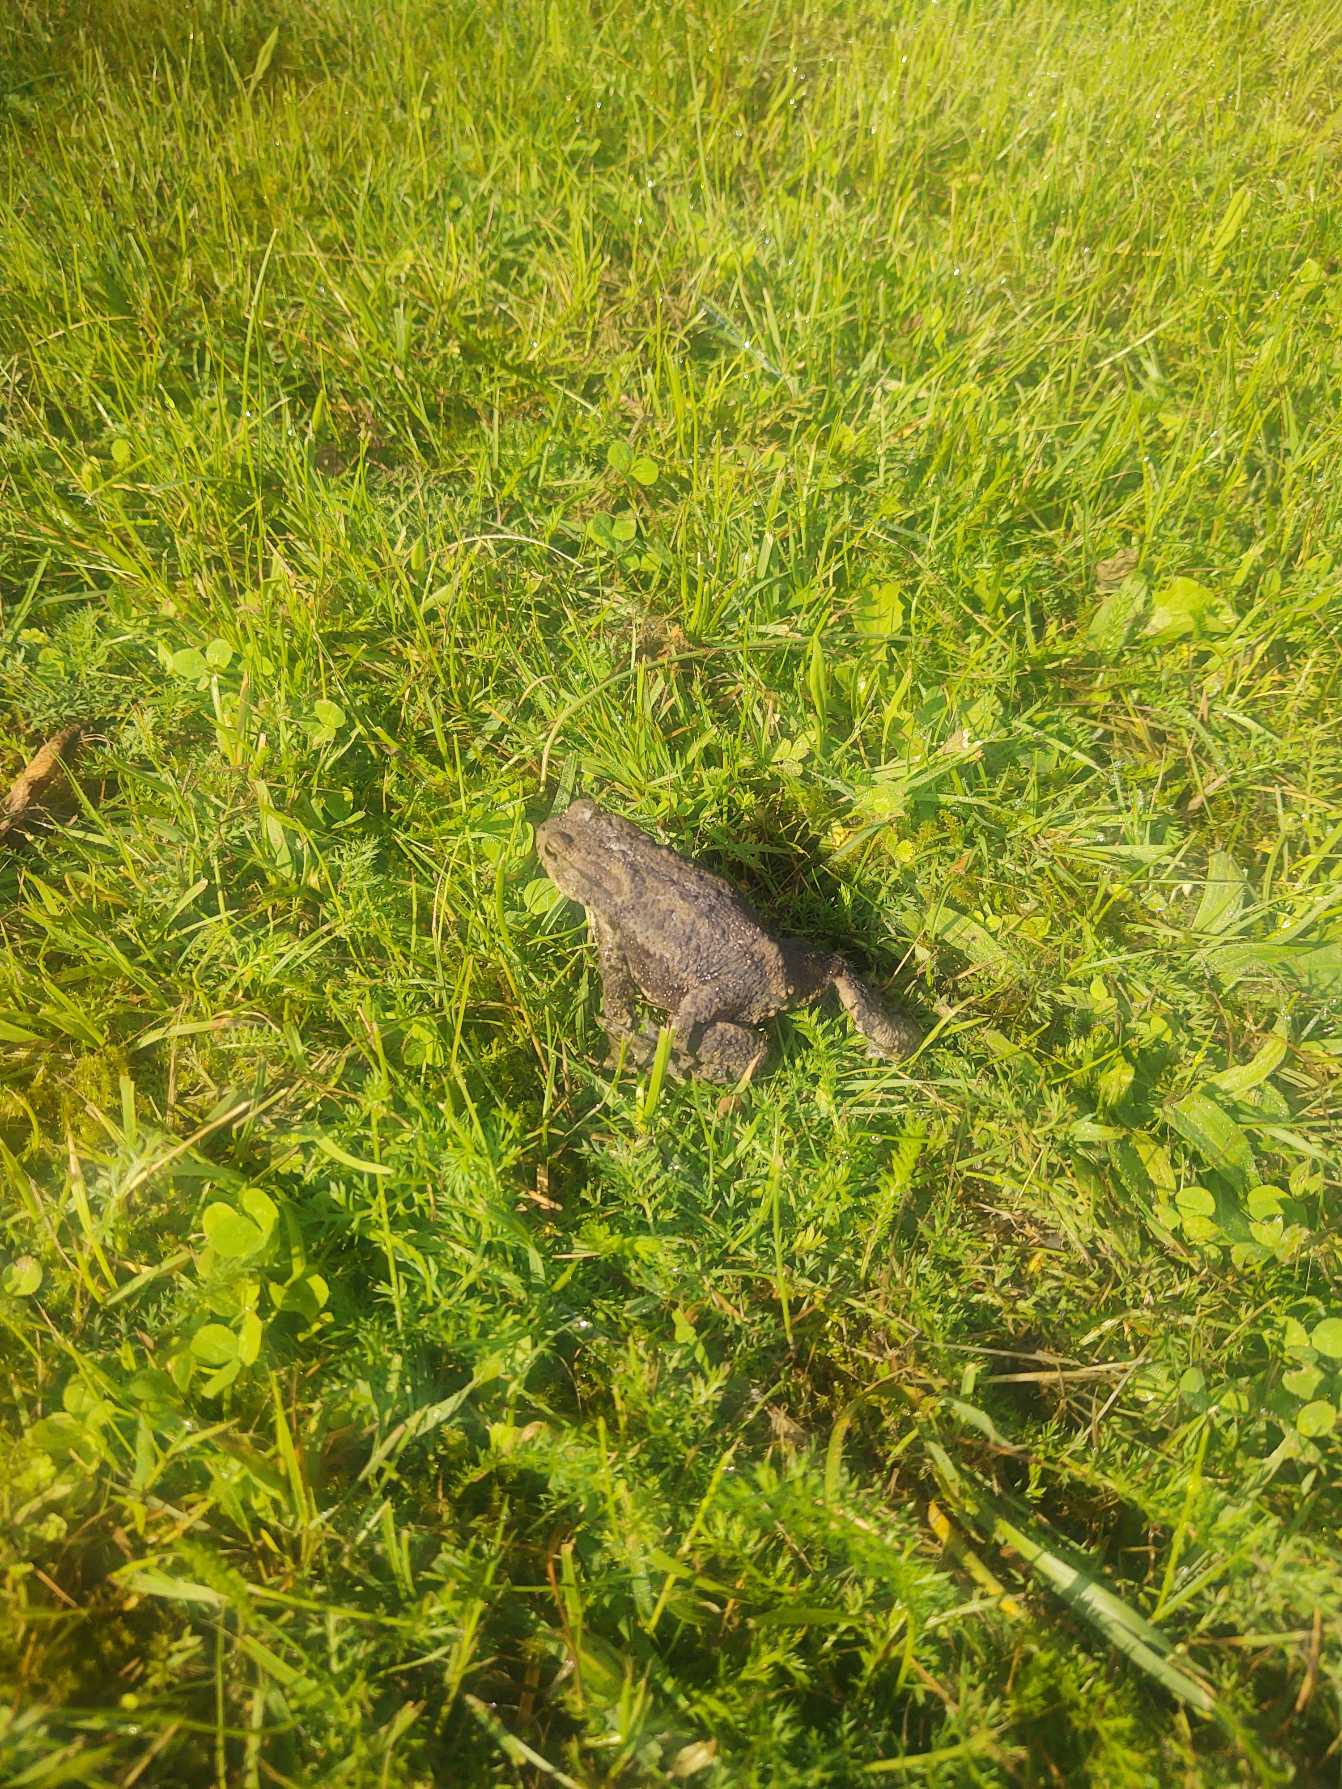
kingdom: Animalia
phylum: Chordata
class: Amphibia
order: Anura
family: Bufonidae
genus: Bufo
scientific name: Bufo bufo
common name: Skrubtudse
